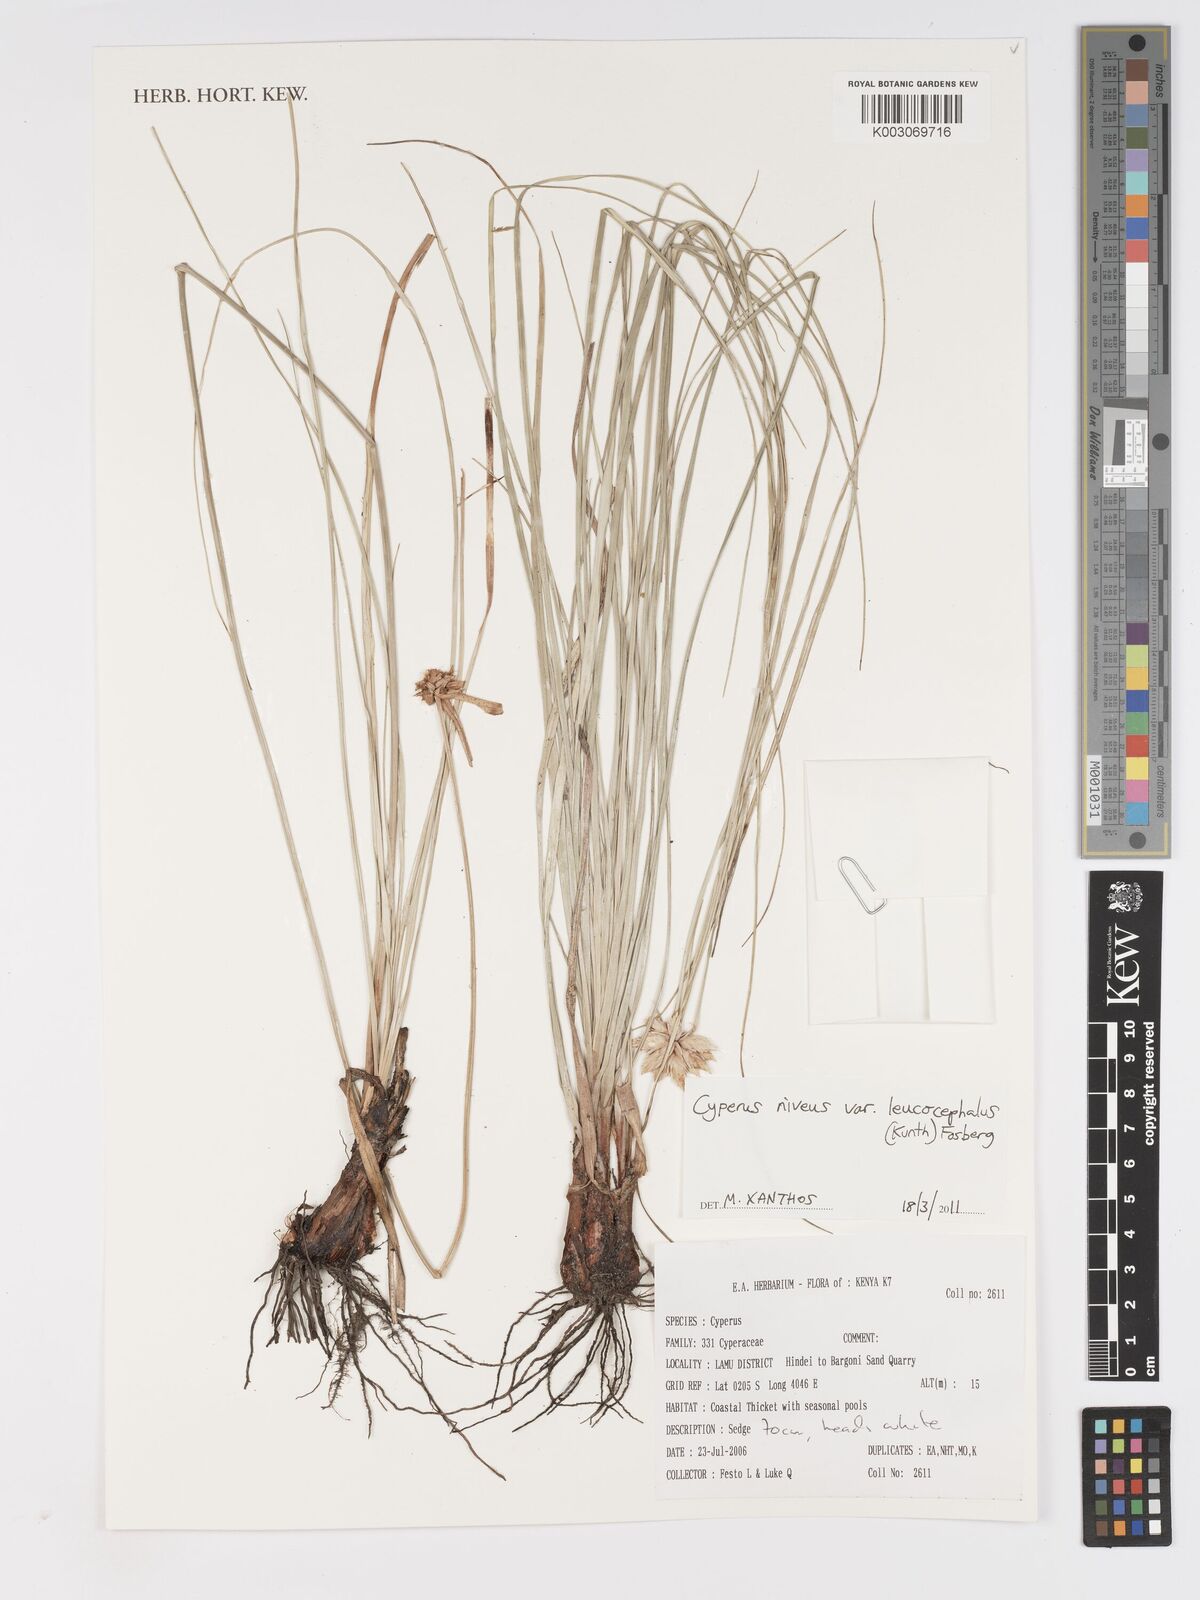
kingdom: Plantae
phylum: Tracheophyta
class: Liliopsida
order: Poales
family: Cyperaceae
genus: Cyperus
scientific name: Cyperus niveus
